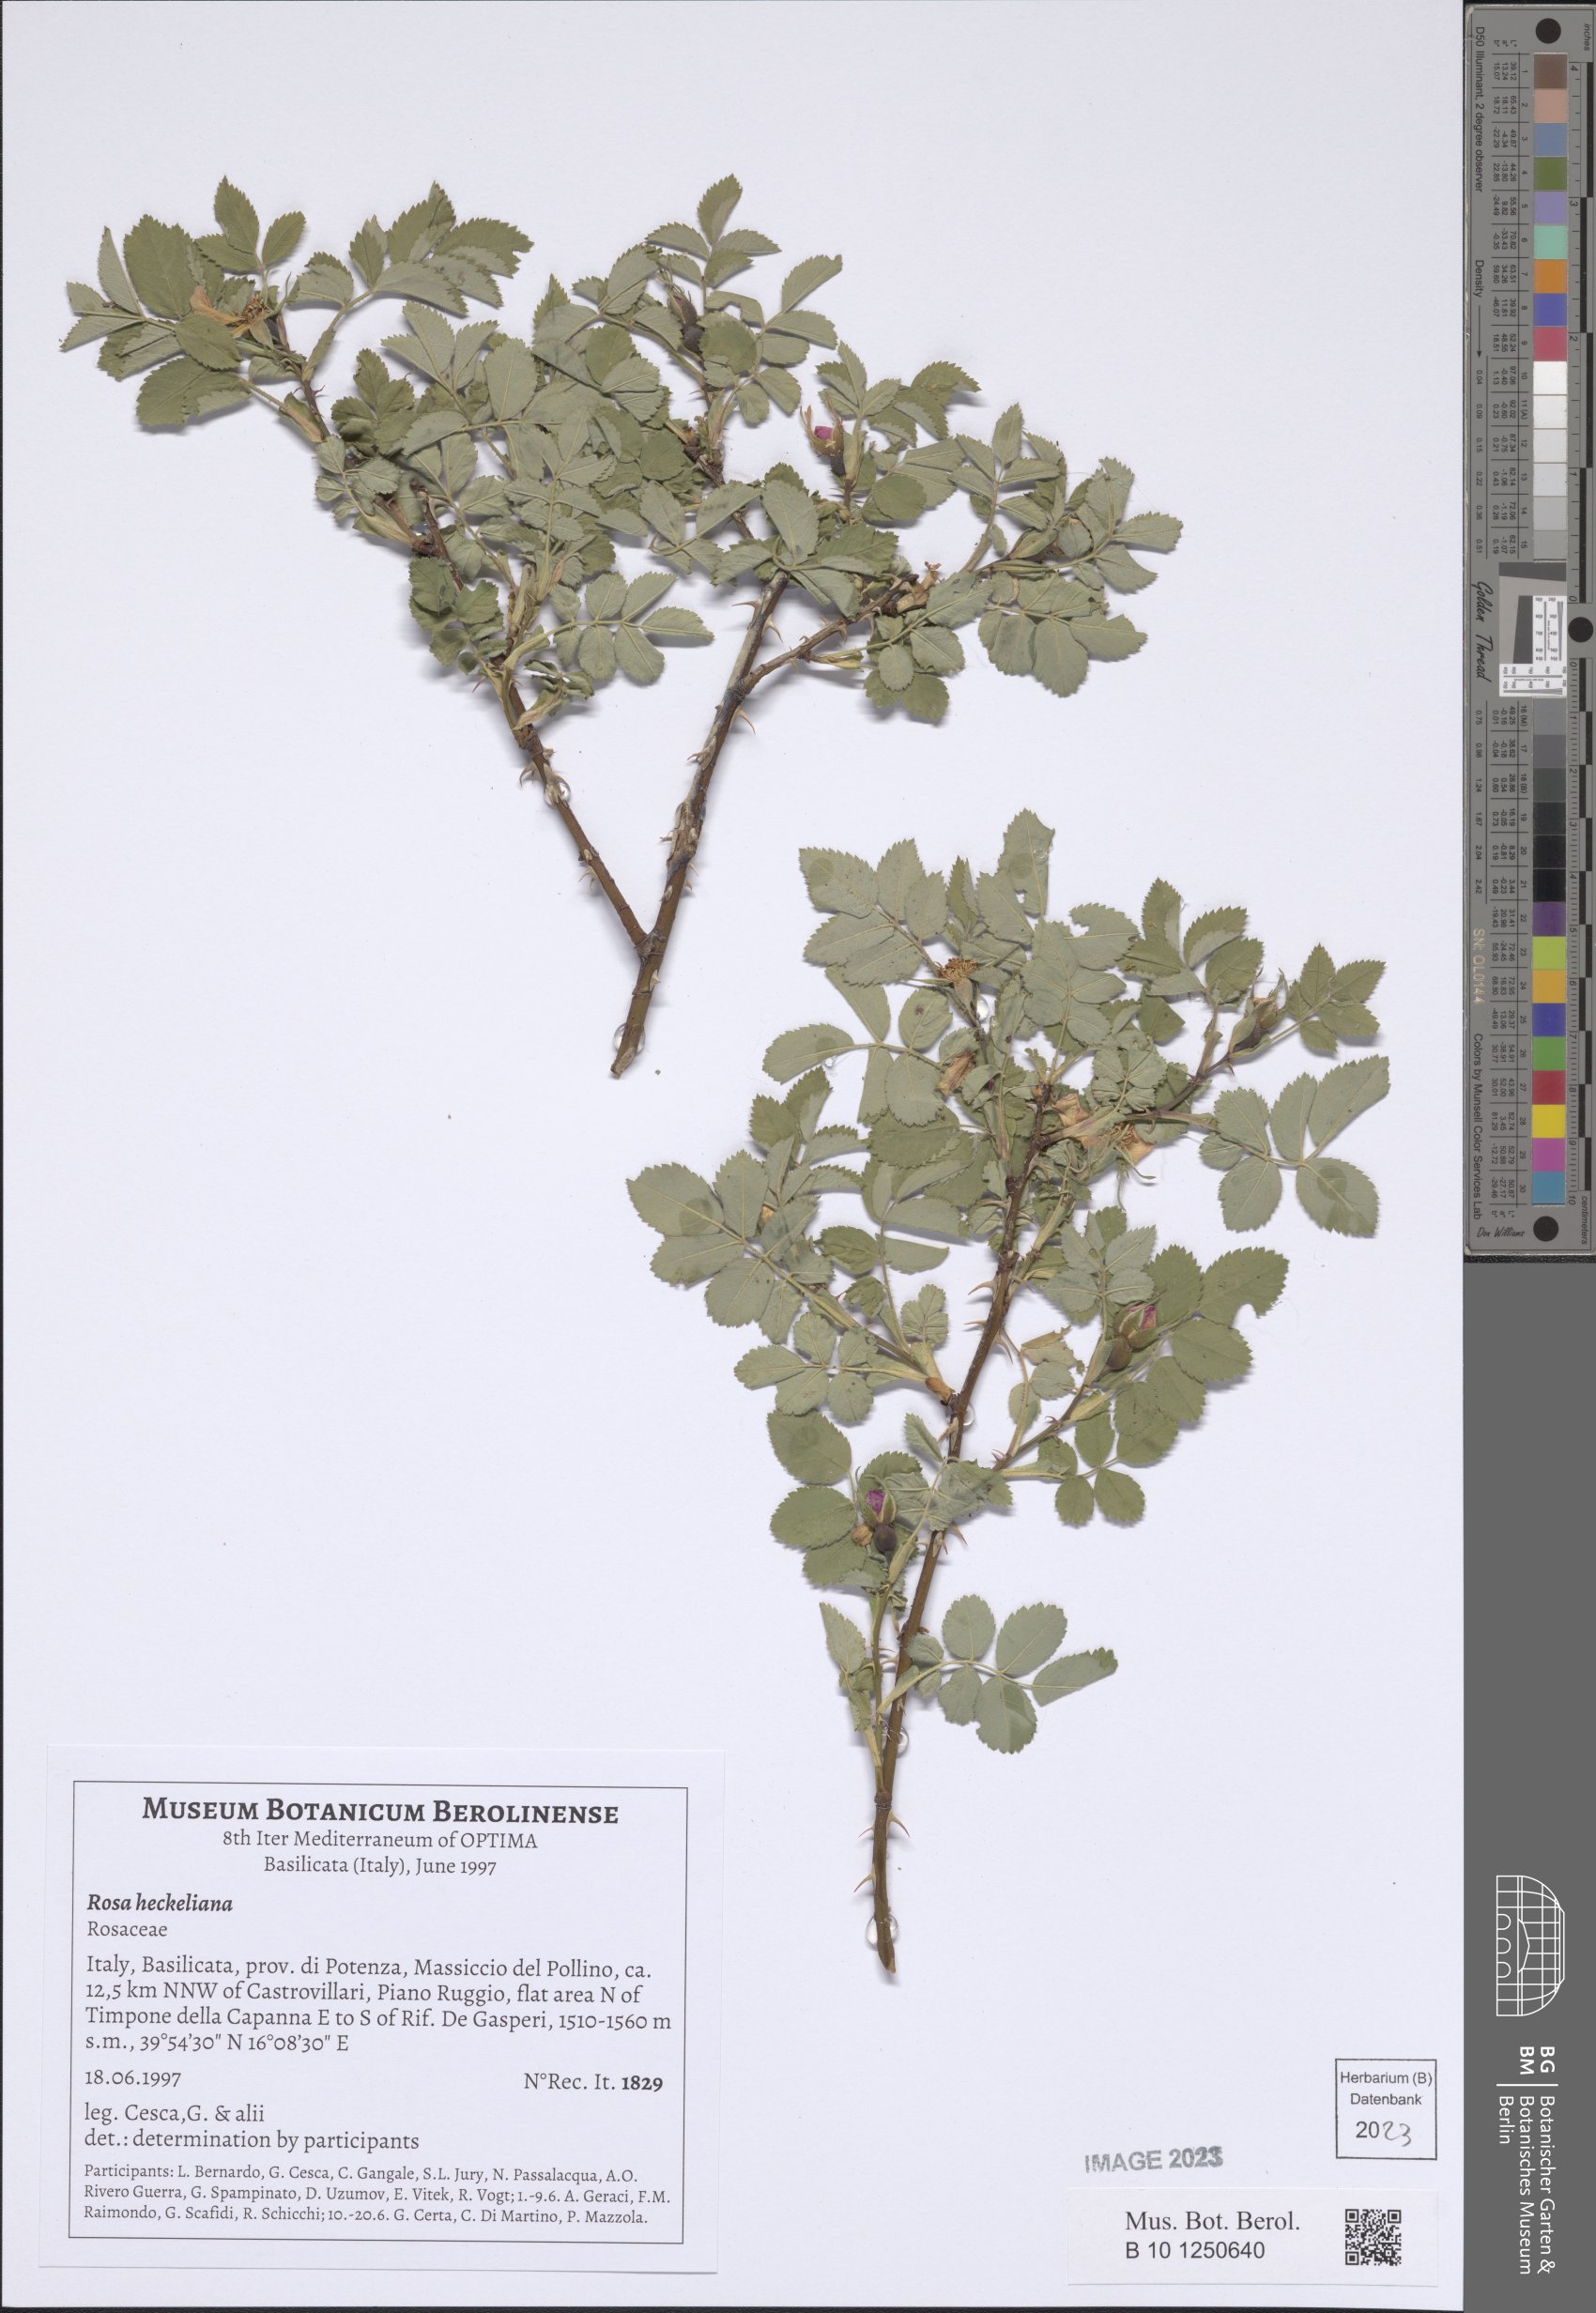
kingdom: Plantae
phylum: Tracheophyta
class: Magnoliopsida
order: Rosales
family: Rosaceae
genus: Rosa
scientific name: Rosa heckeliana
